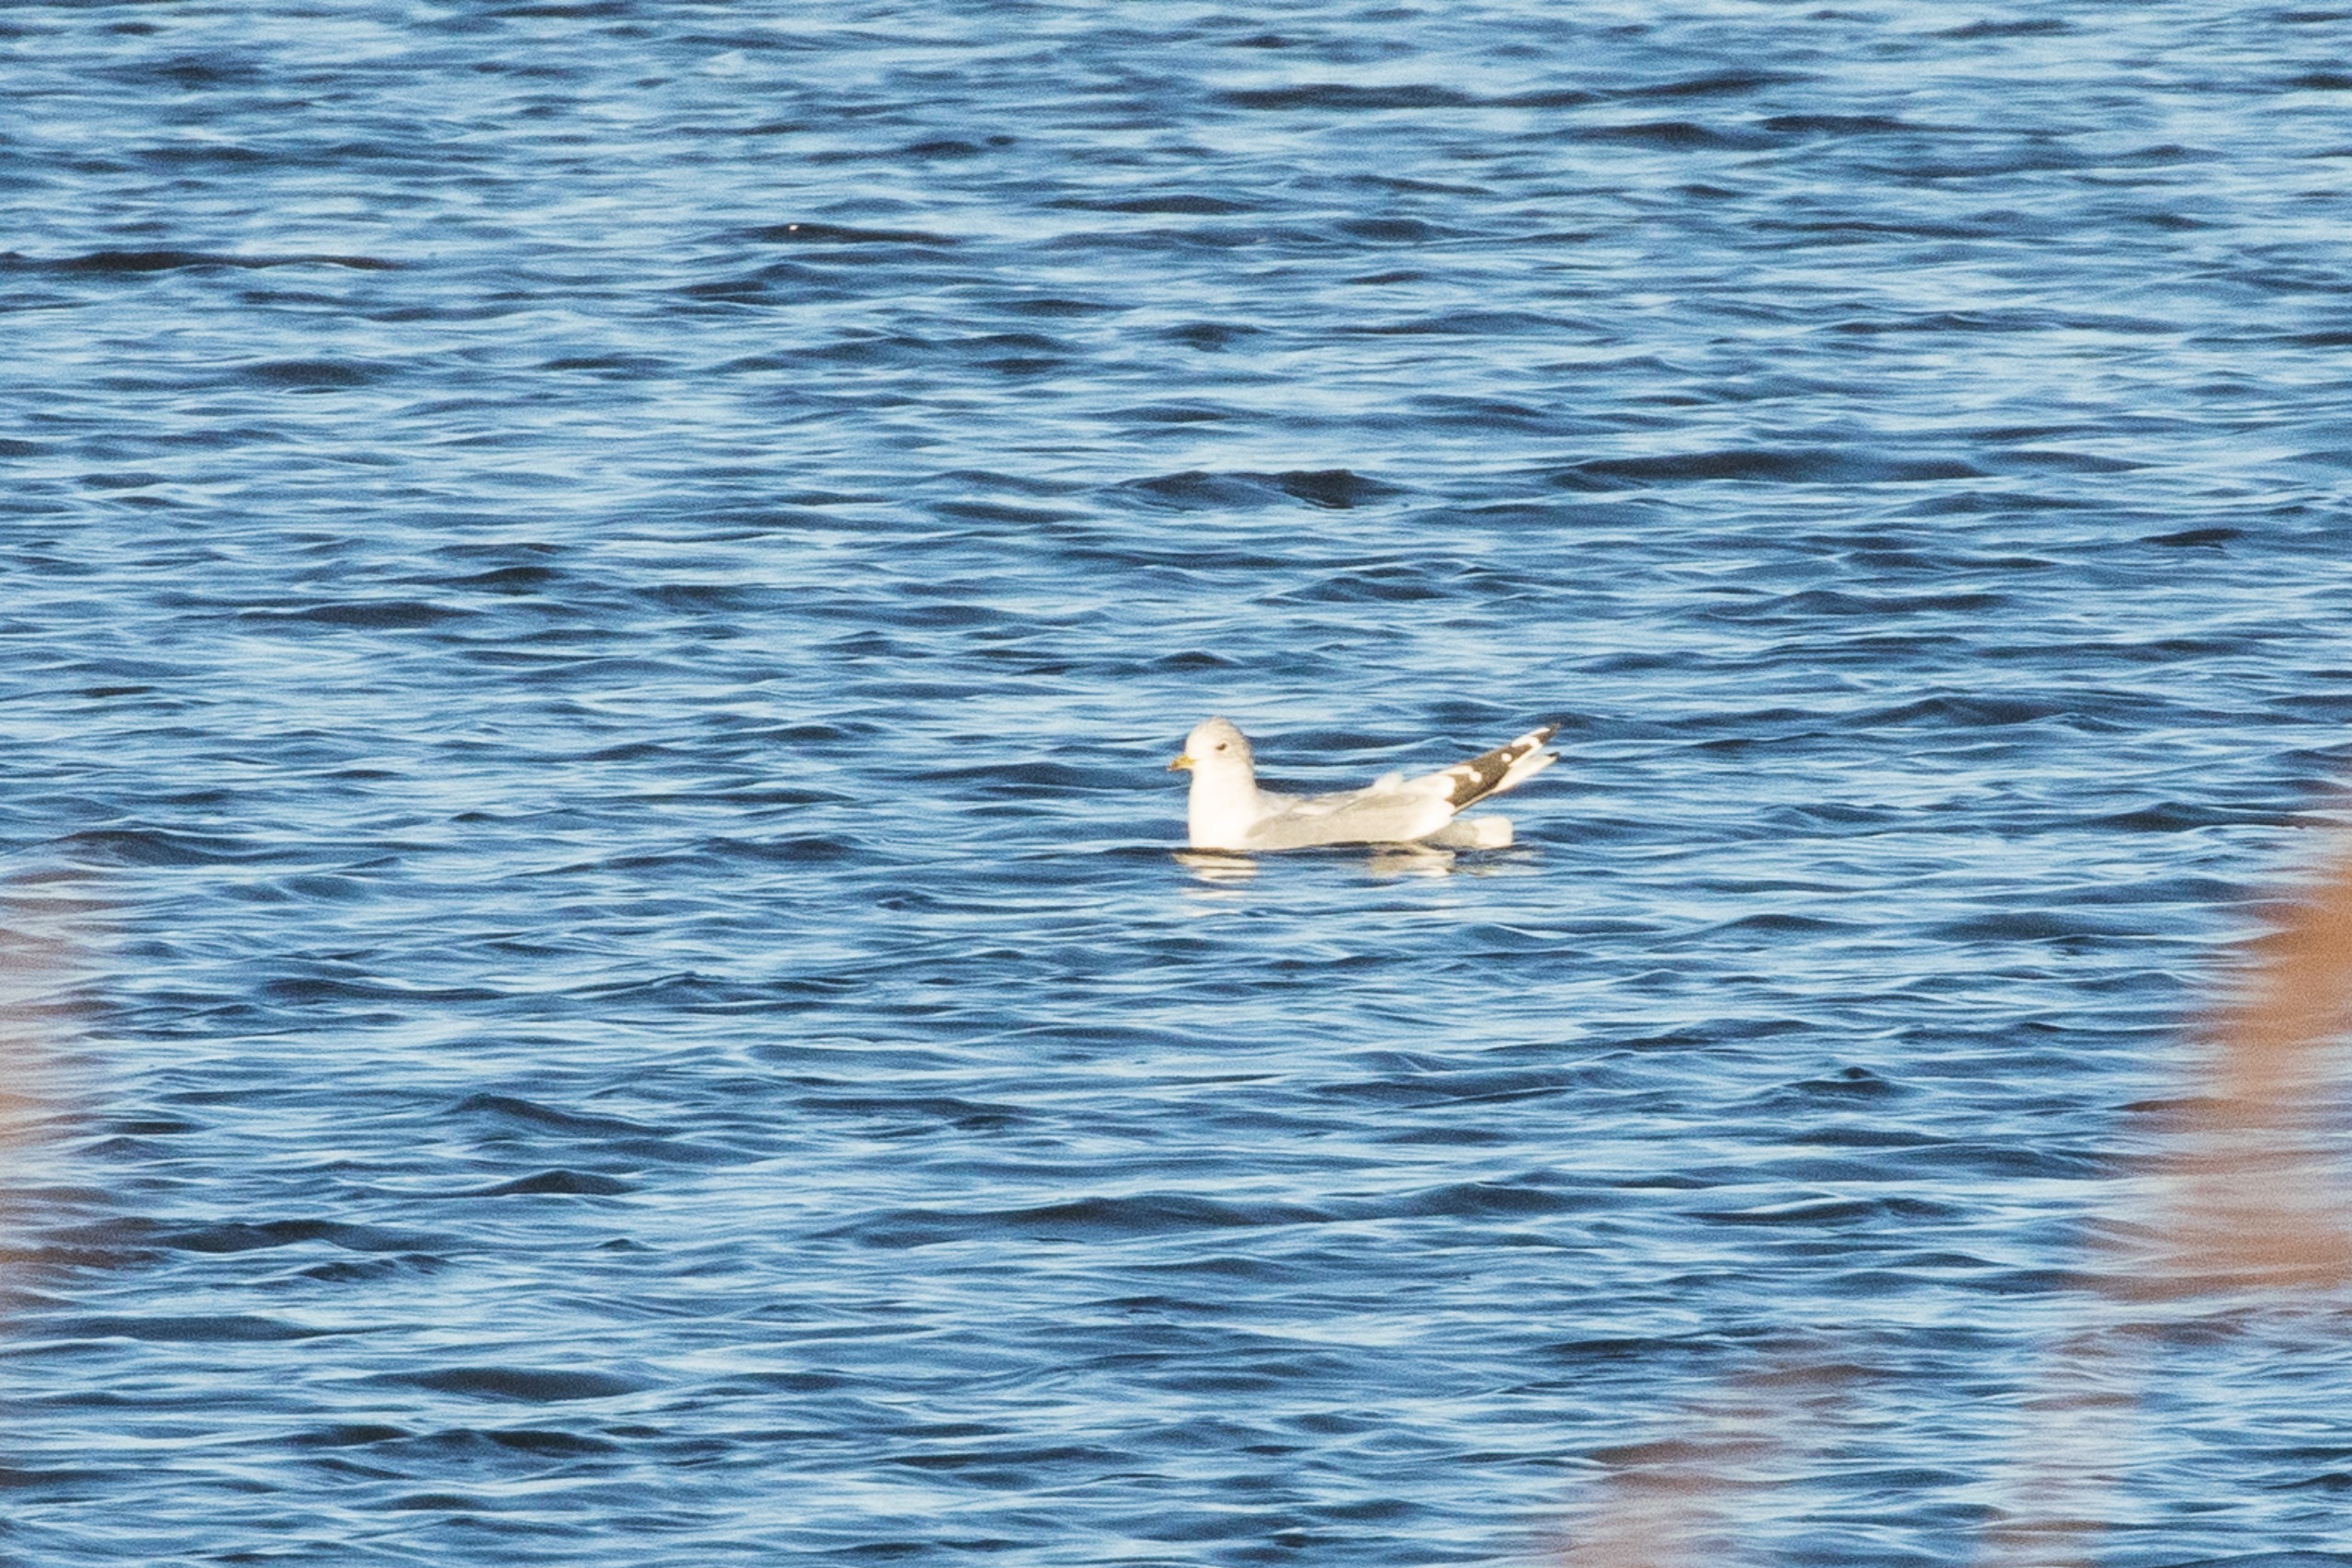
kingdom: Animalia
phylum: Chordata
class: Aves
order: Charadriiformes
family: Laridae
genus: Larus
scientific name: Larus canus
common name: Stormmåge
